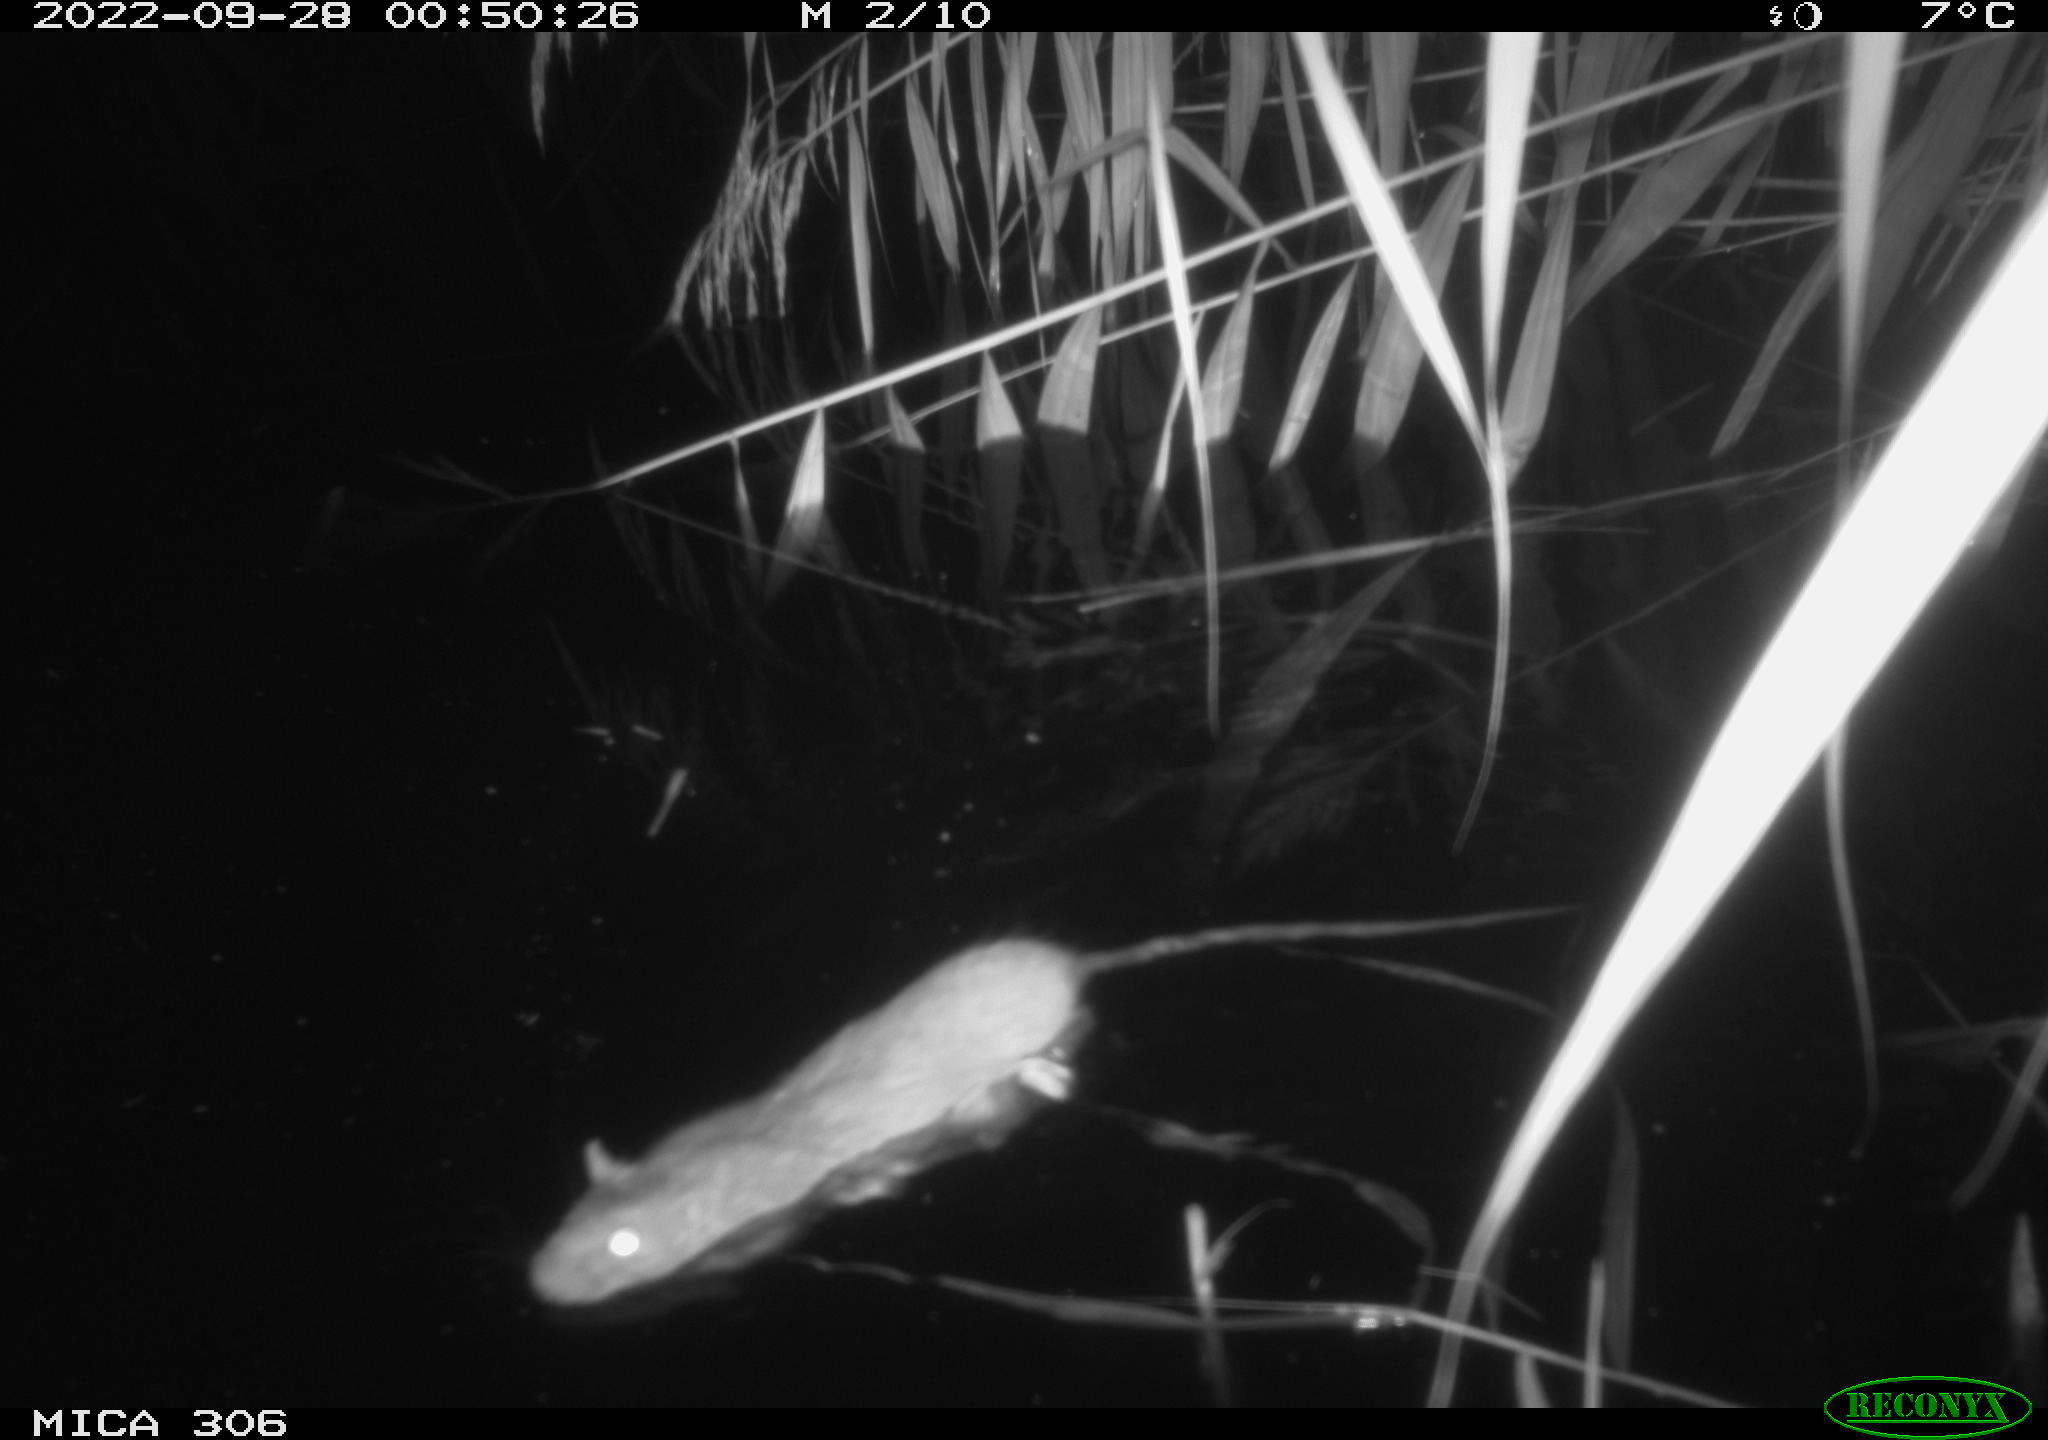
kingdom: Animalia
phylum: Chordata
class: Mammalia
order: Rodentia
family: Muridae
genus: Rattus
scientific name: Rattus norvegicus
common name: Brown rat
